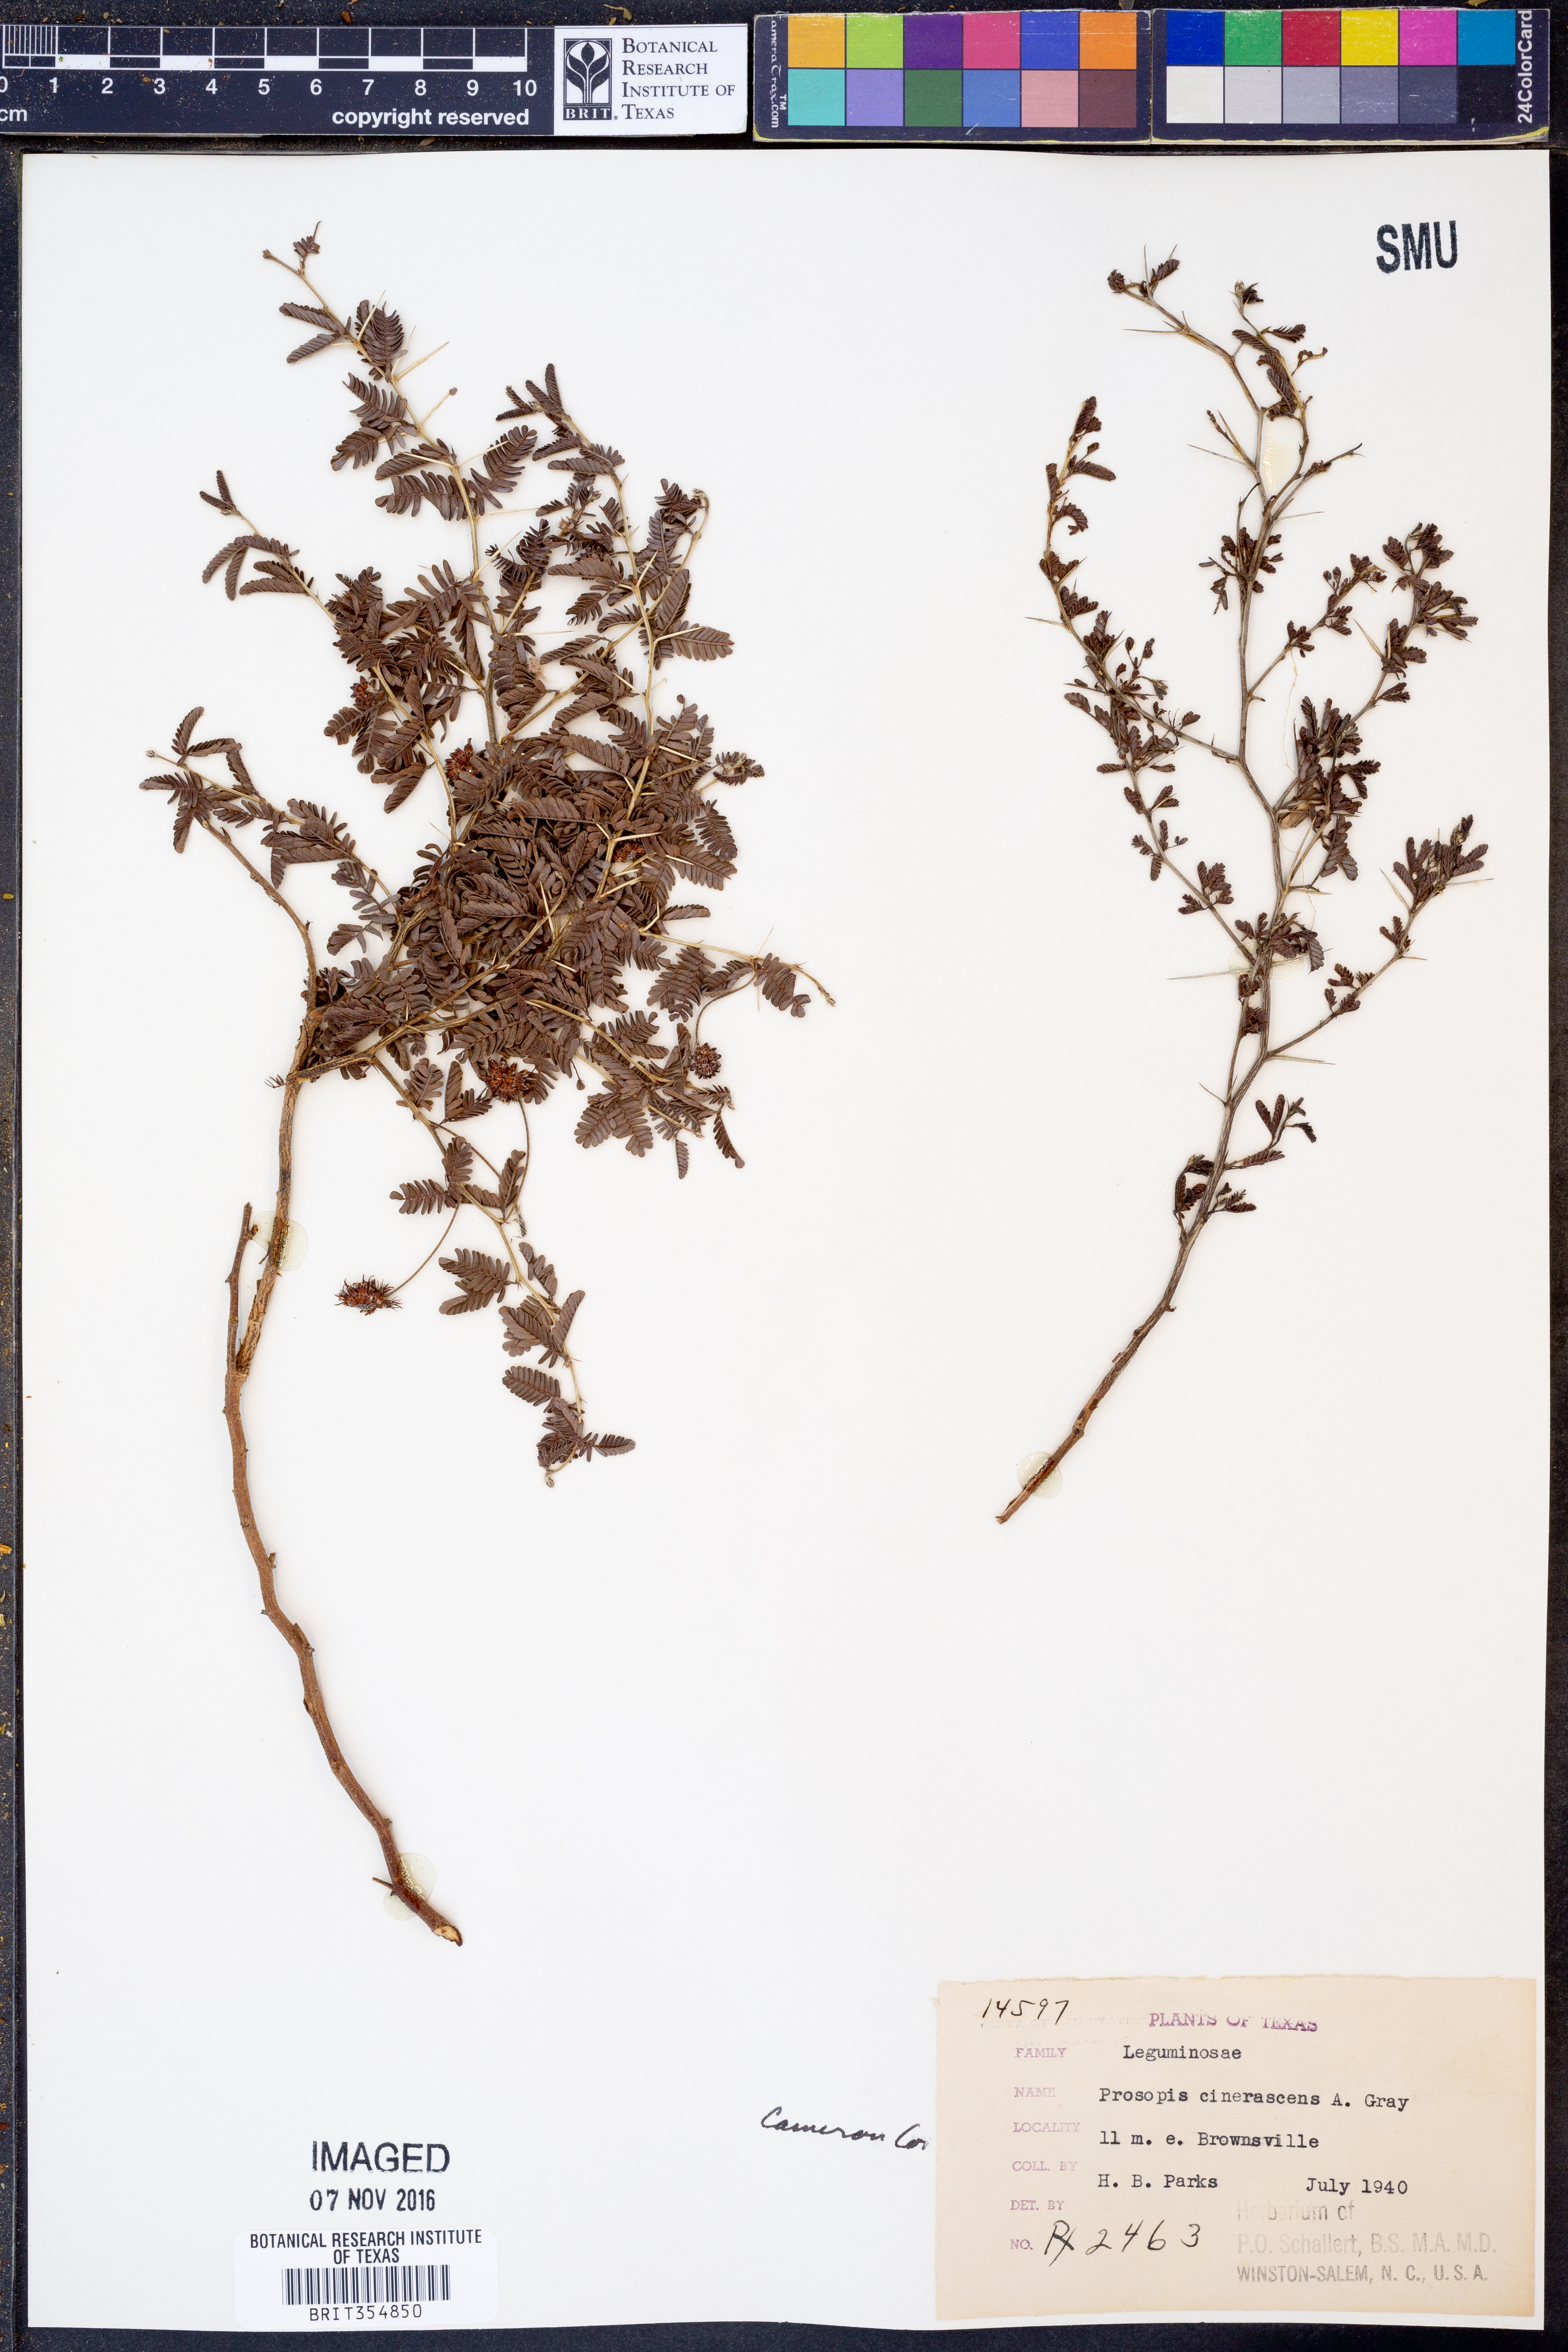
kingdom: Plantae
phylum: Tracheophyta
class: Magnoliopsida
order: Fabales
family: Fabaceae
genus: Prosopis
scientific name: Prosopis cinerascens
